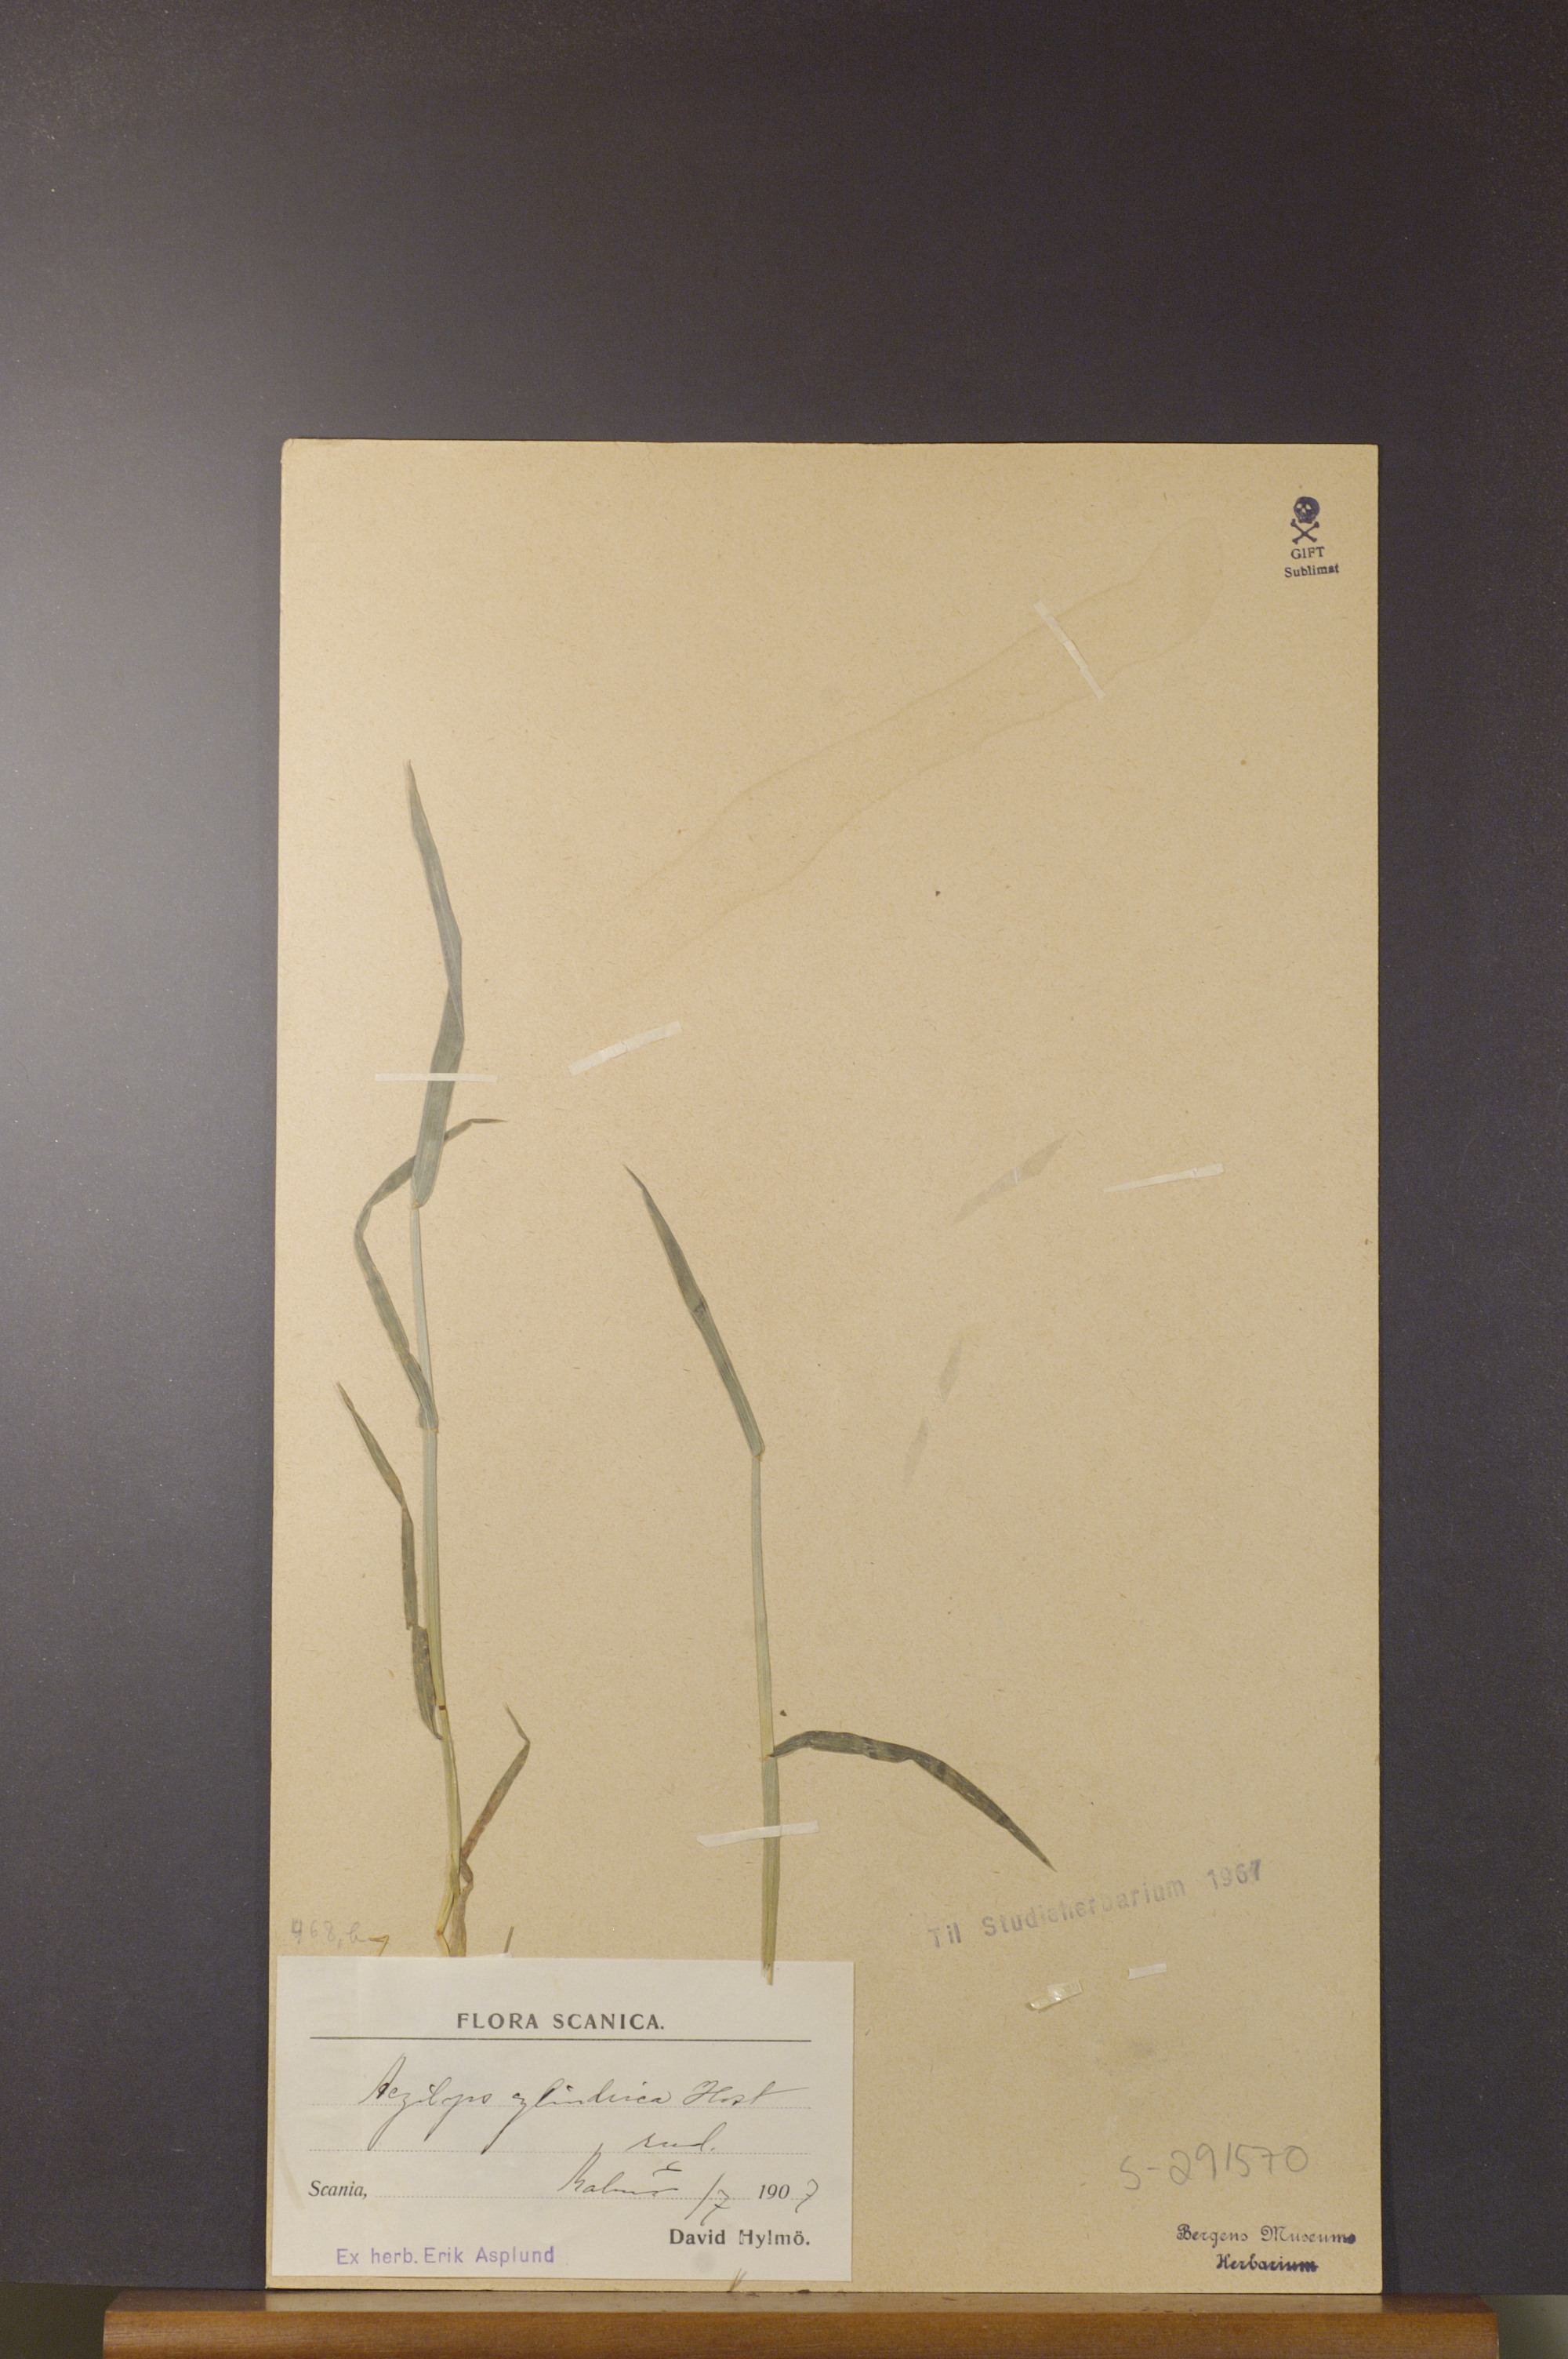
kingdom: Plantae
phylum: Tracheophyta
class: Liliopsida
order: Poales
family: Poaceae
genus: Aegilops
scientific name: Aegilops cylindrica
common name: Jointed goatgrass
